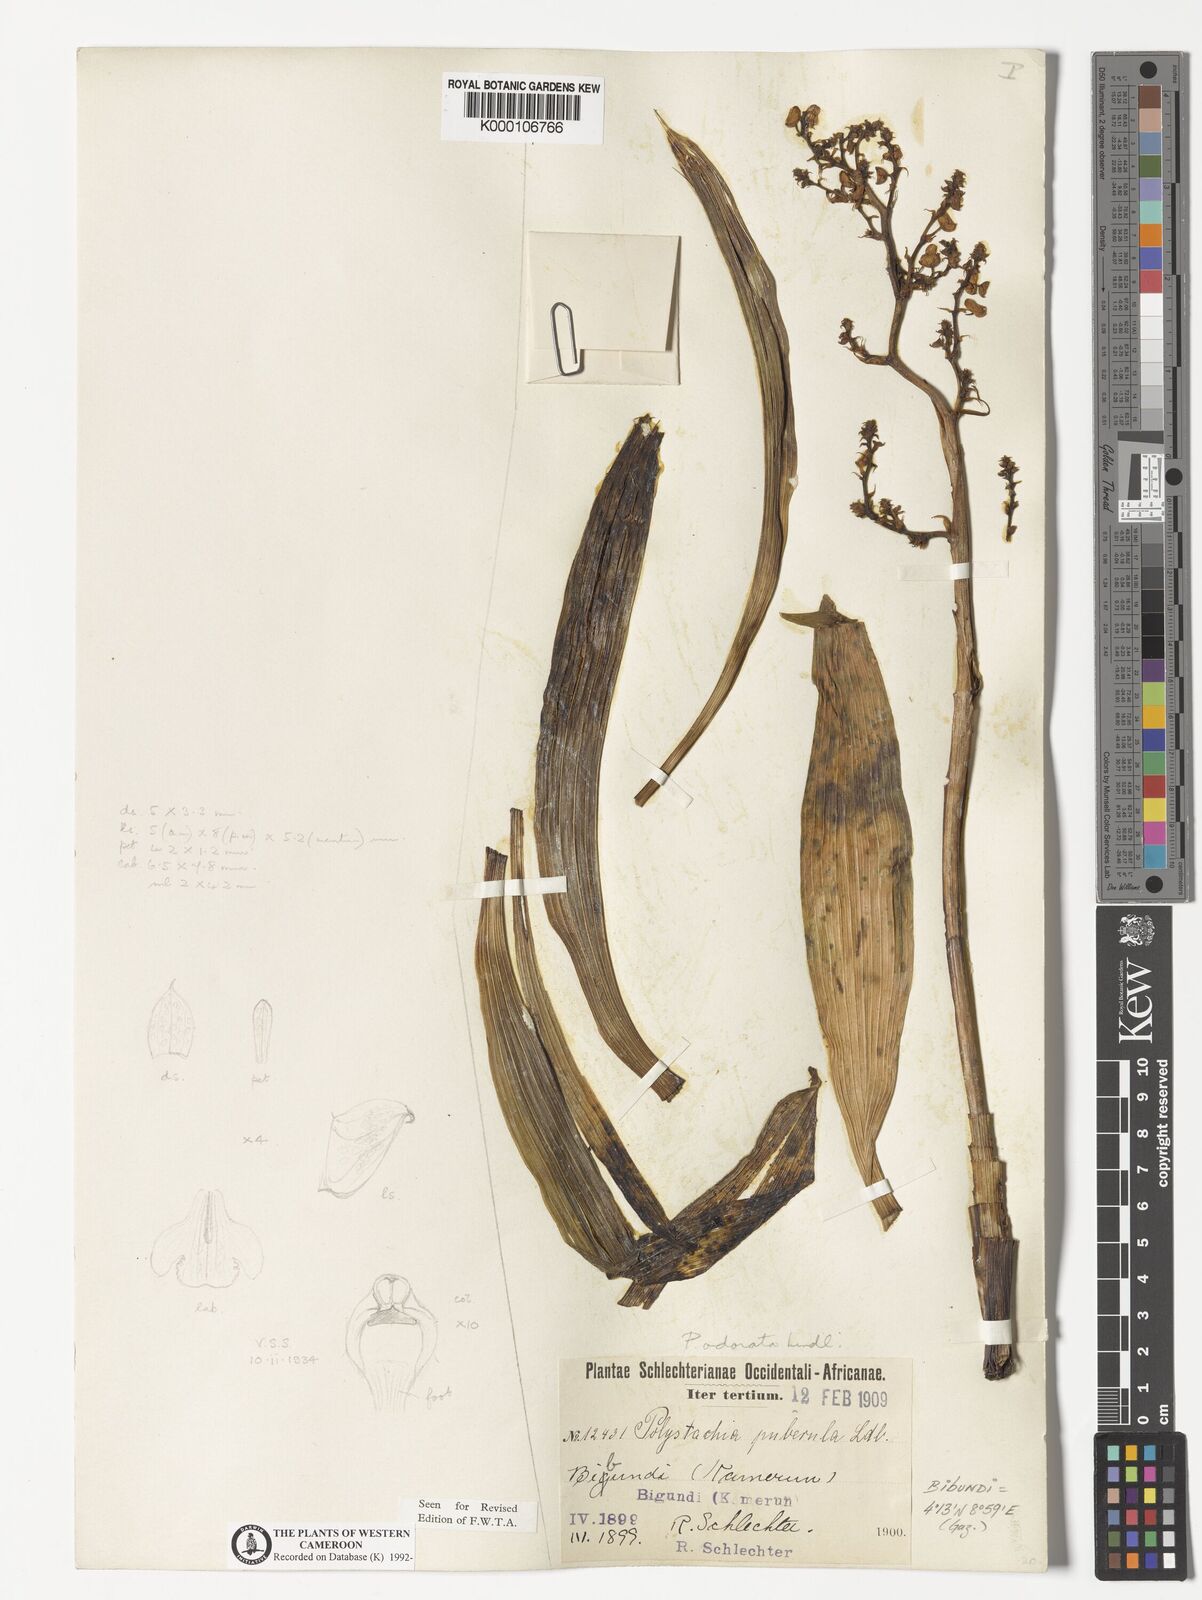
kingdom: Plantae
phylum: Tracheophyta
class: Liliopsida
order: Asparagales
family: Orchidaceae
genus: Polystachya
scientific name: Polystachya odorata
